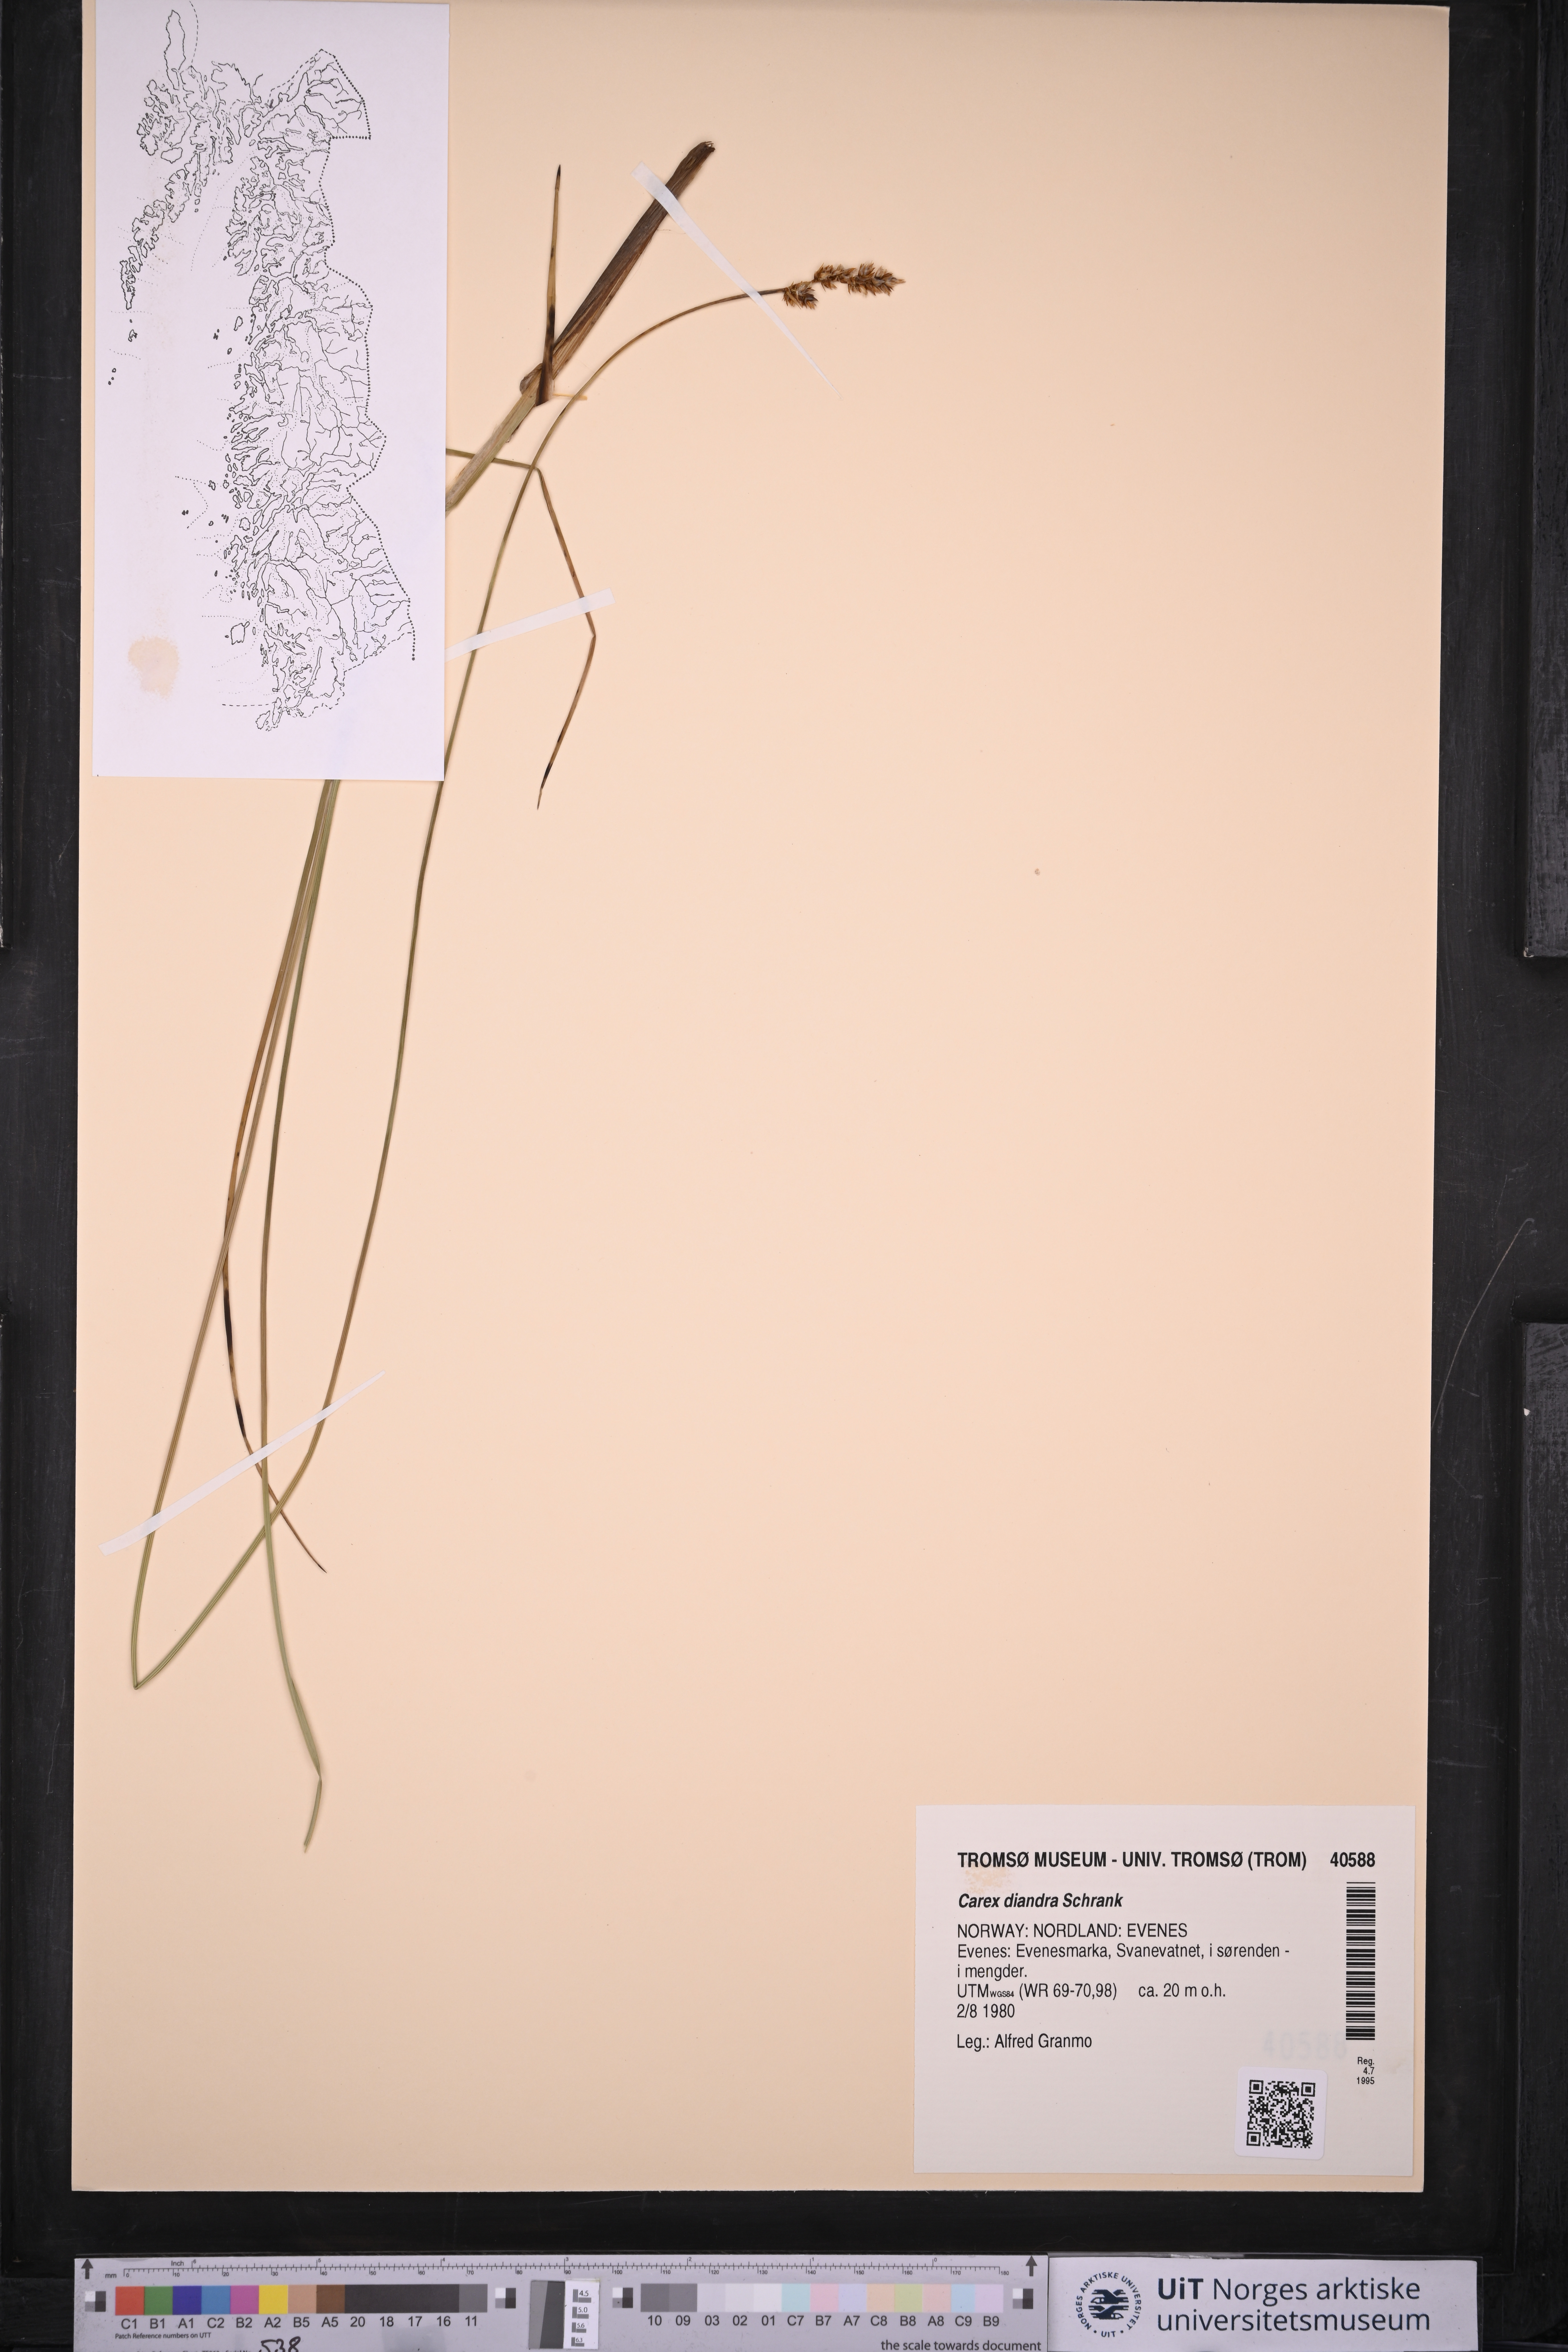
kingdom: Plantae
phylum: Tracheophyta
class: Liliopsida
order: Poales
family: Cyperaceae
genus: Carex
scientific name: Carex diandra
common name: Lesser tussock-sedge
